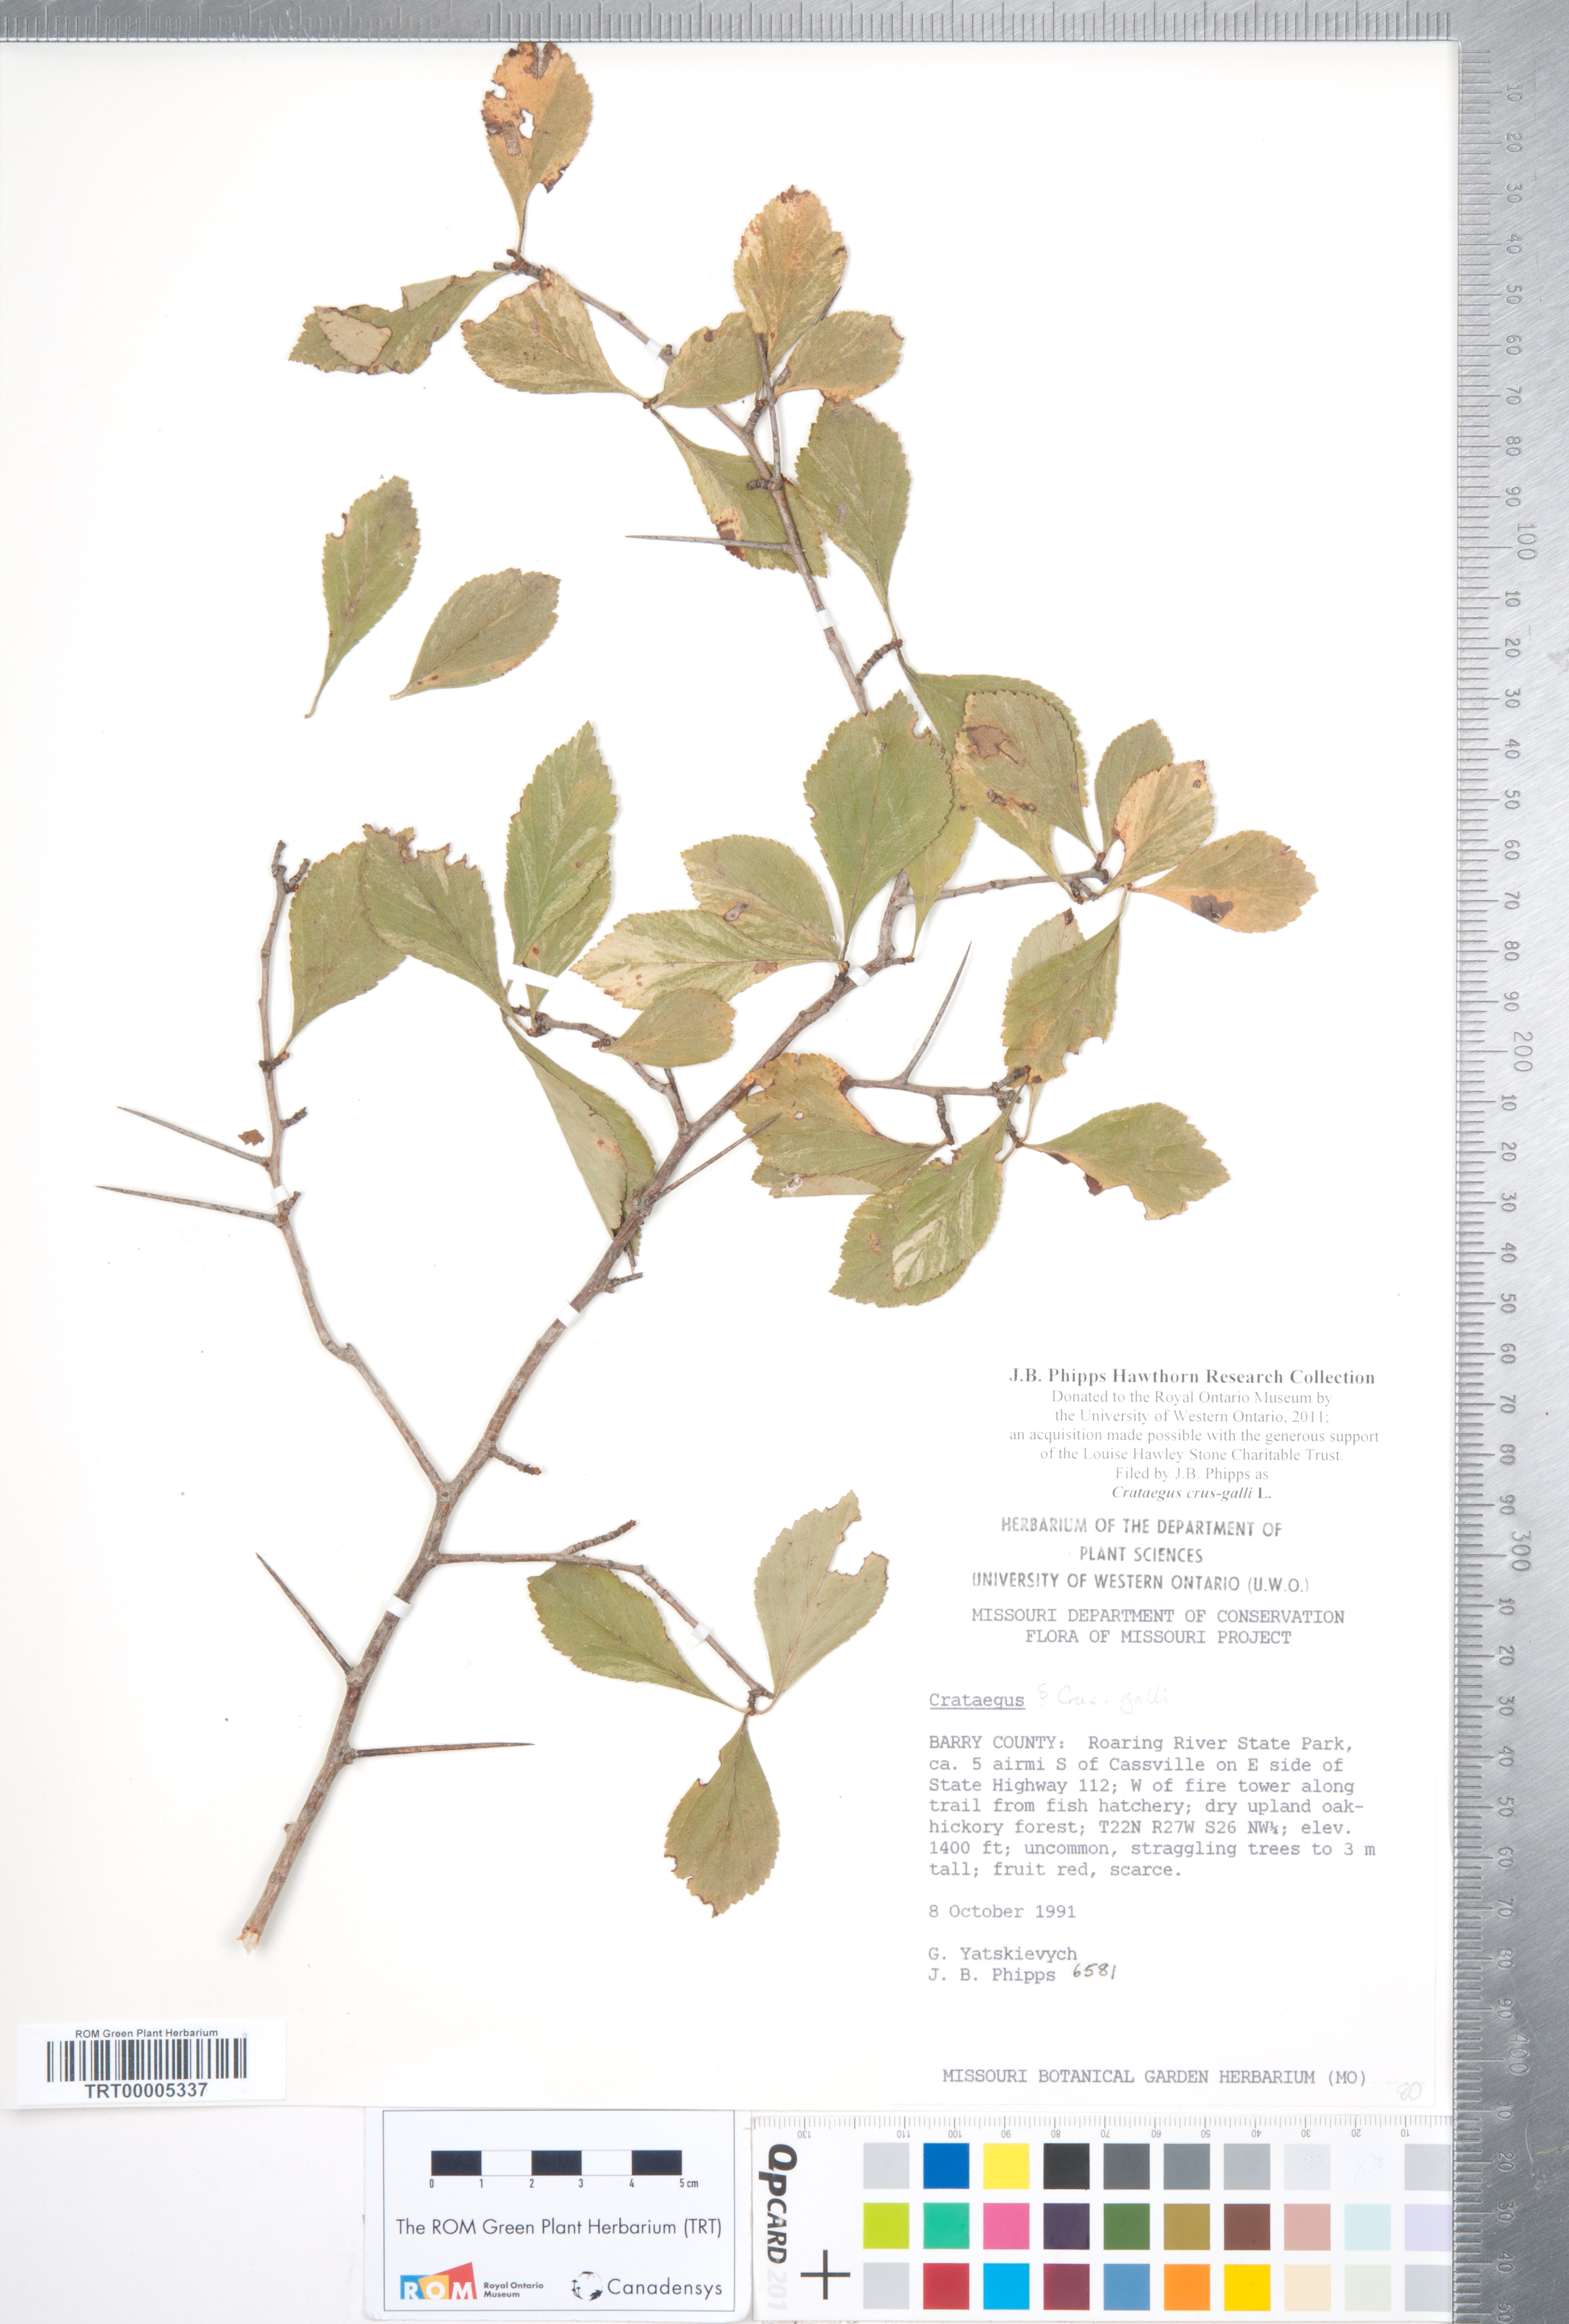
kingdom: Plantae
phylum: Tracheophyta
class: Magnoliopsida
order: Rosales
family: Rosaceae
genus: Crataegus
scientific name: Crataegus crus-galli
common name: Cockspurthorn
